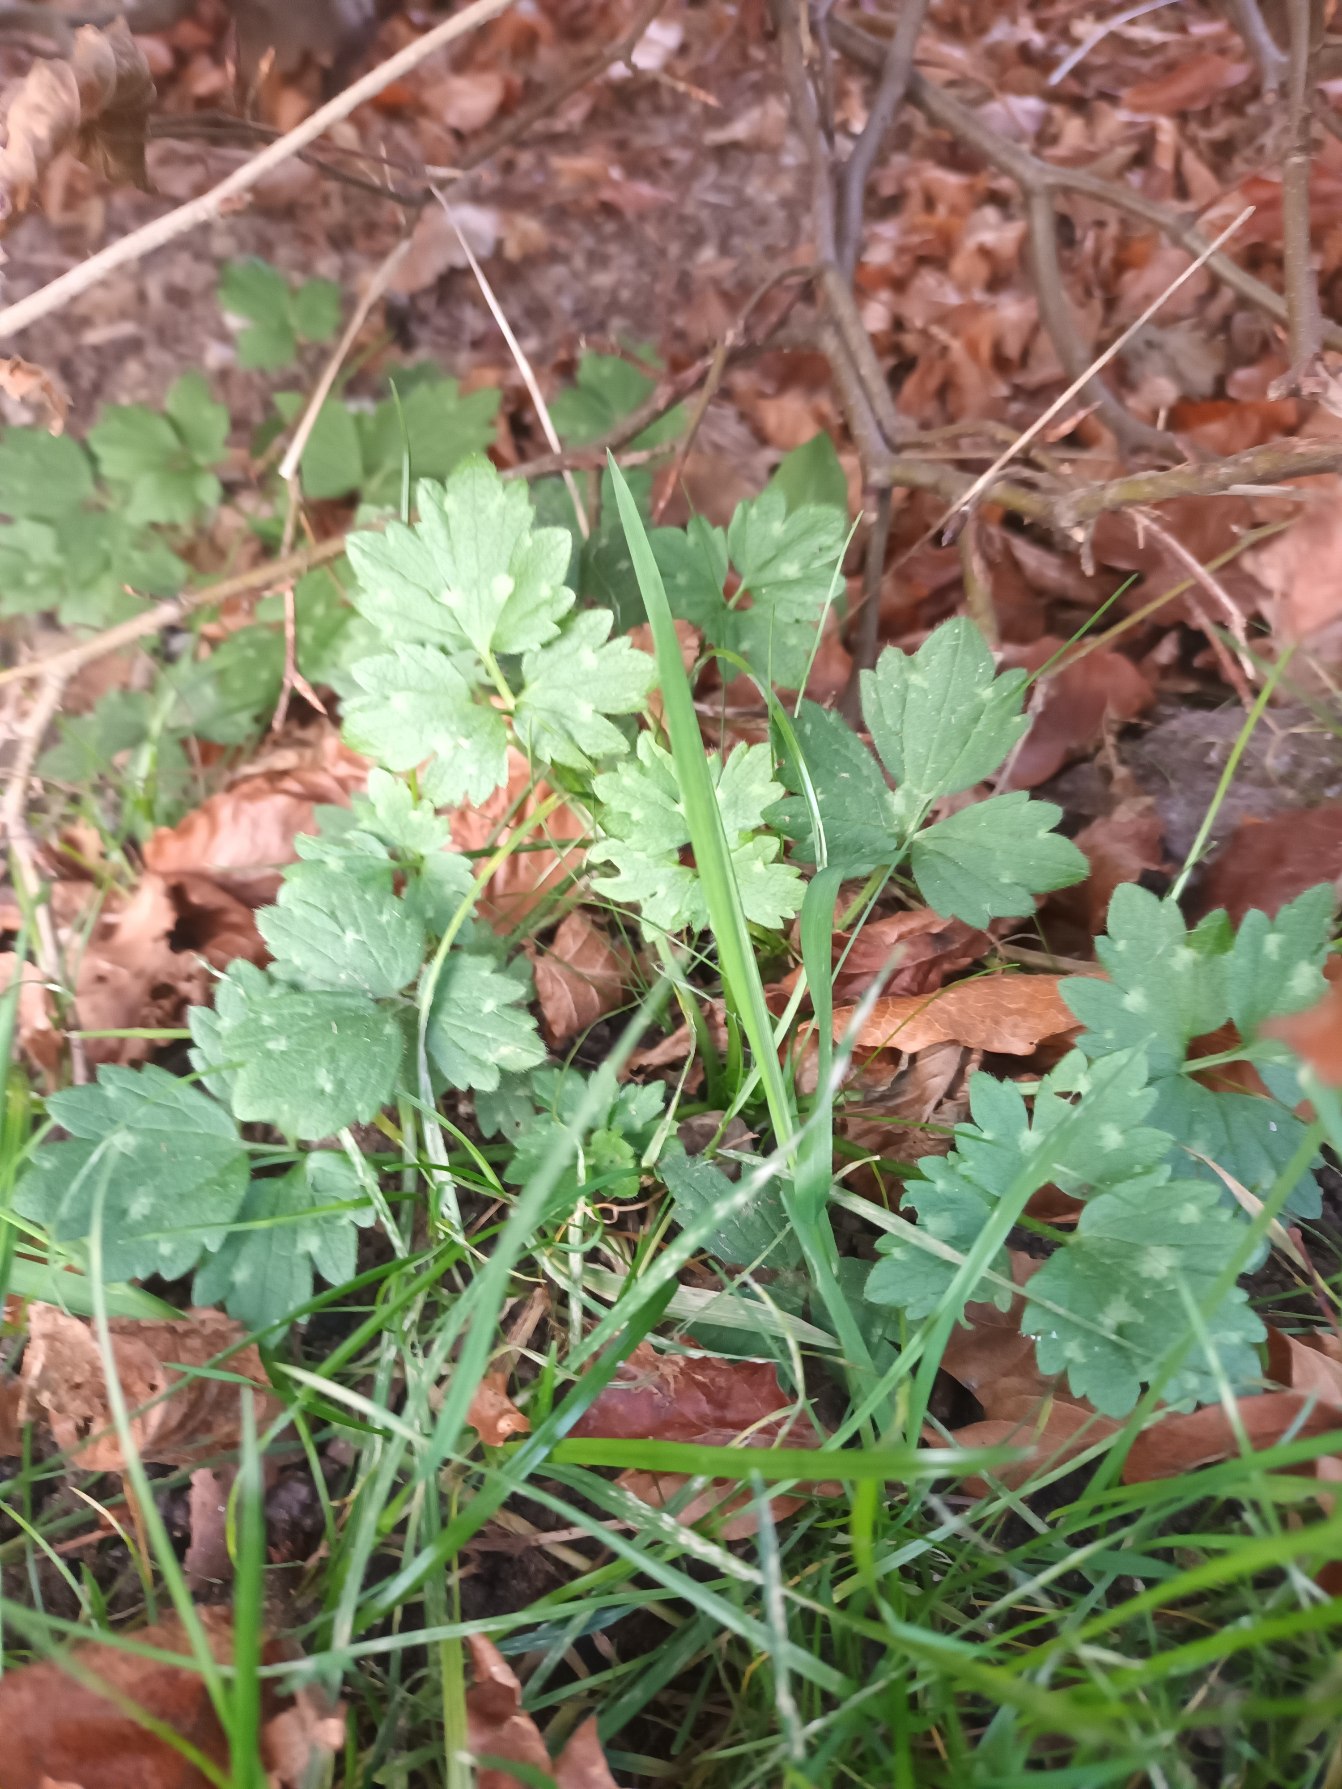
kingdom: Plantae
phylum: Tracheophyta
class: Magnoliopsida
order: Ranunculales
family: Ranunculaceae
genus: Ranunculus
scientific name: Ranunculus repens
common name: Lav ranunkel
